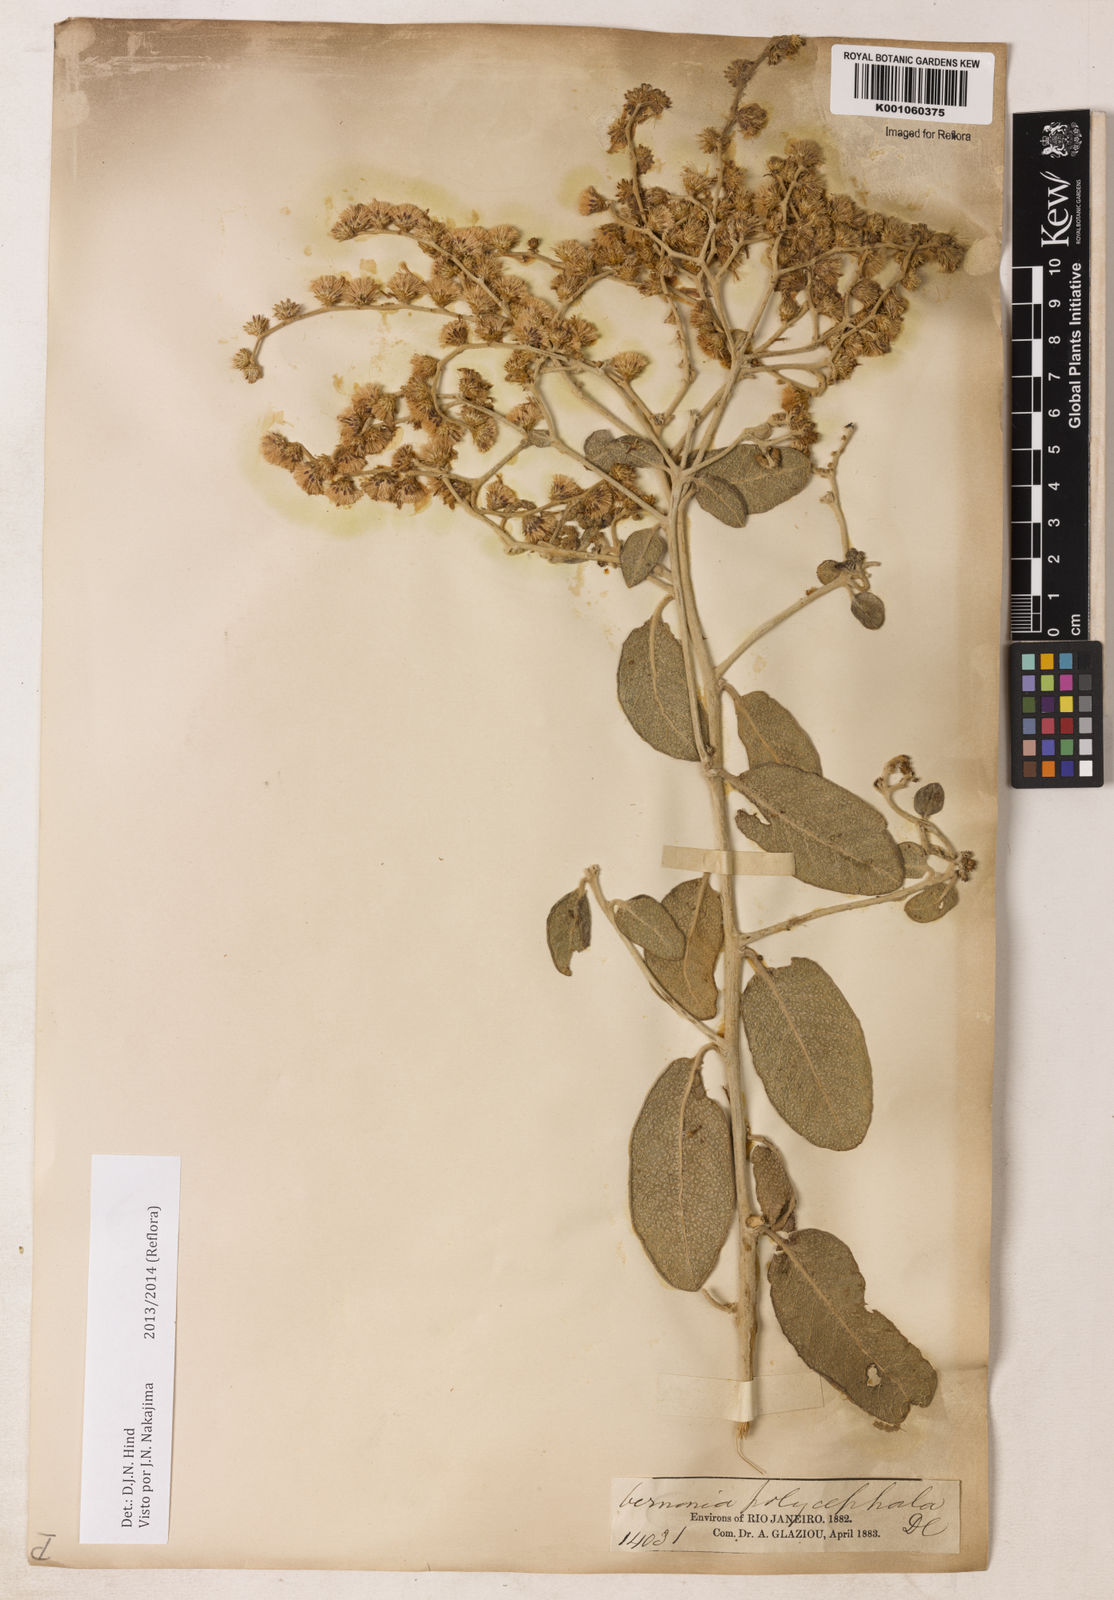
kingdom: Plantae
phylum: Tracheophyta
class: Magnoliopsida
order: Asterales
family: Asteraceae
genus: Vernonanthura
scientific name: Vernonanthura ferruginea
